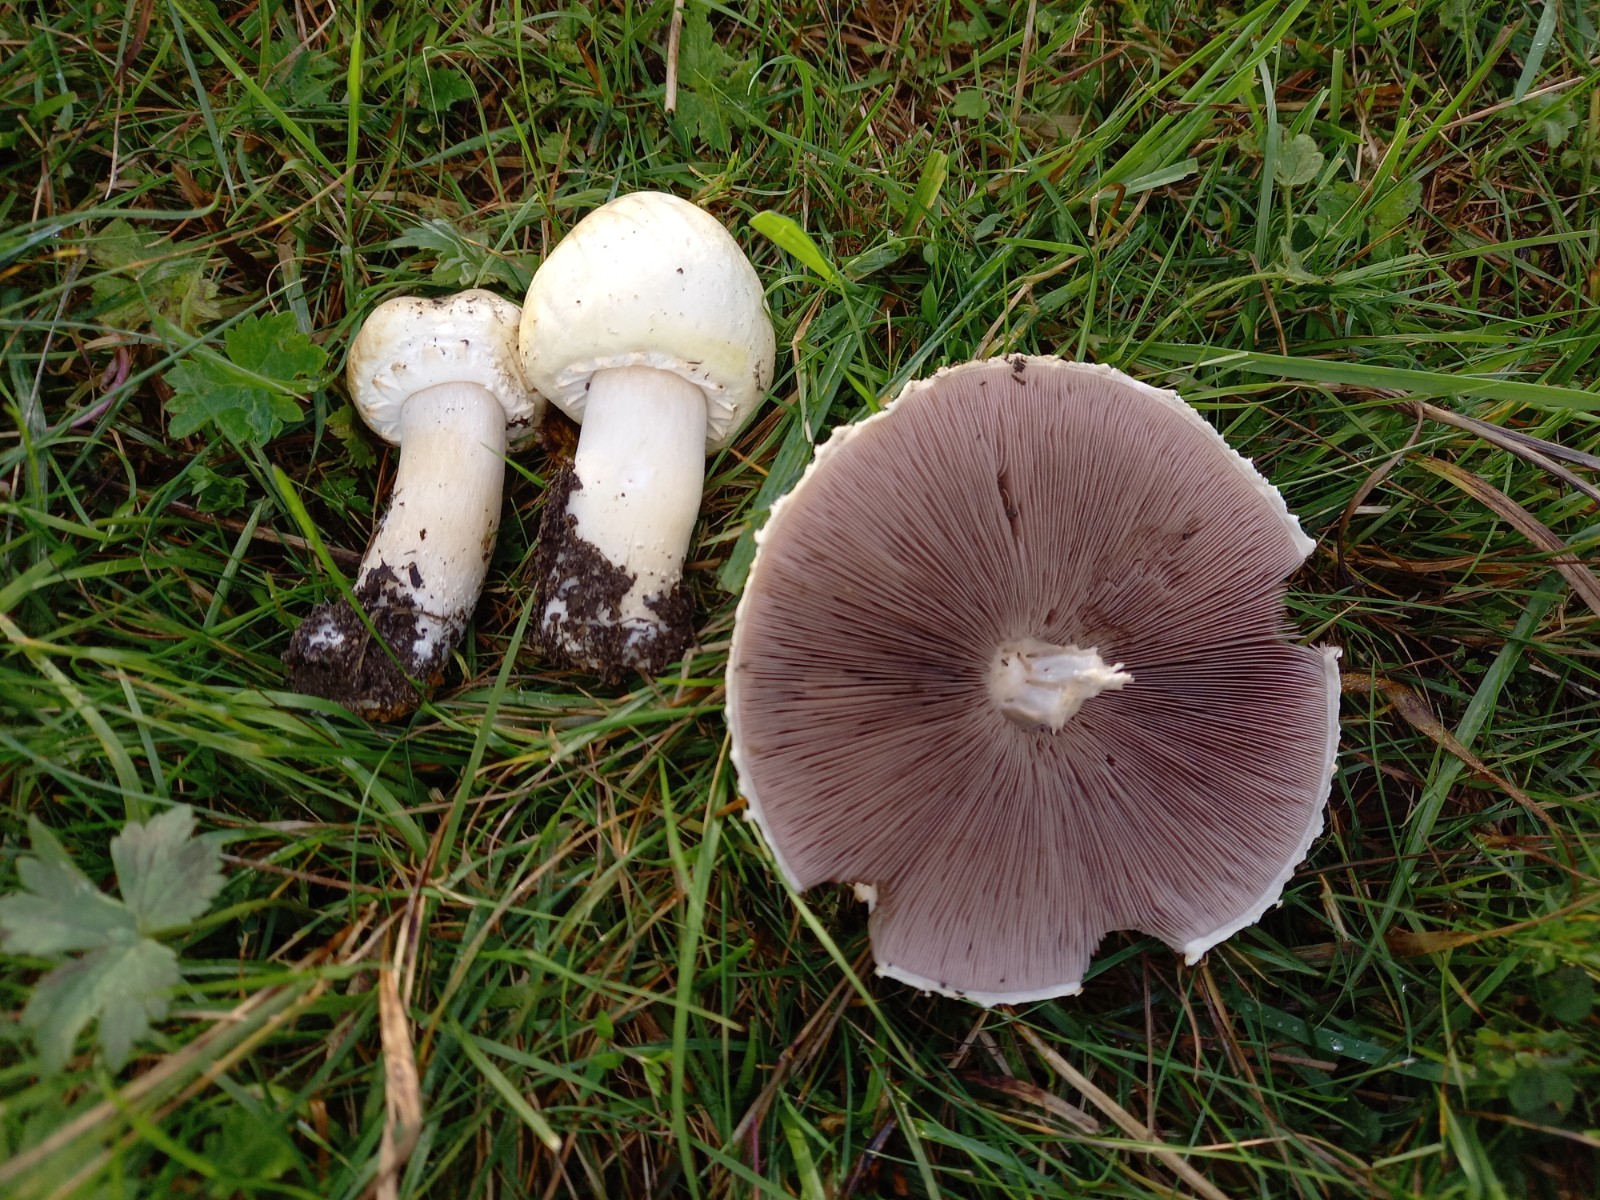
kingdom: Fungi
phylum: Basidiomycota
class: Agaricomycetes
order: Agaricales
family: Agaricaceae
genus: Agaricus
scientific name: Agaricus arvensis
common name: ager-champignon
